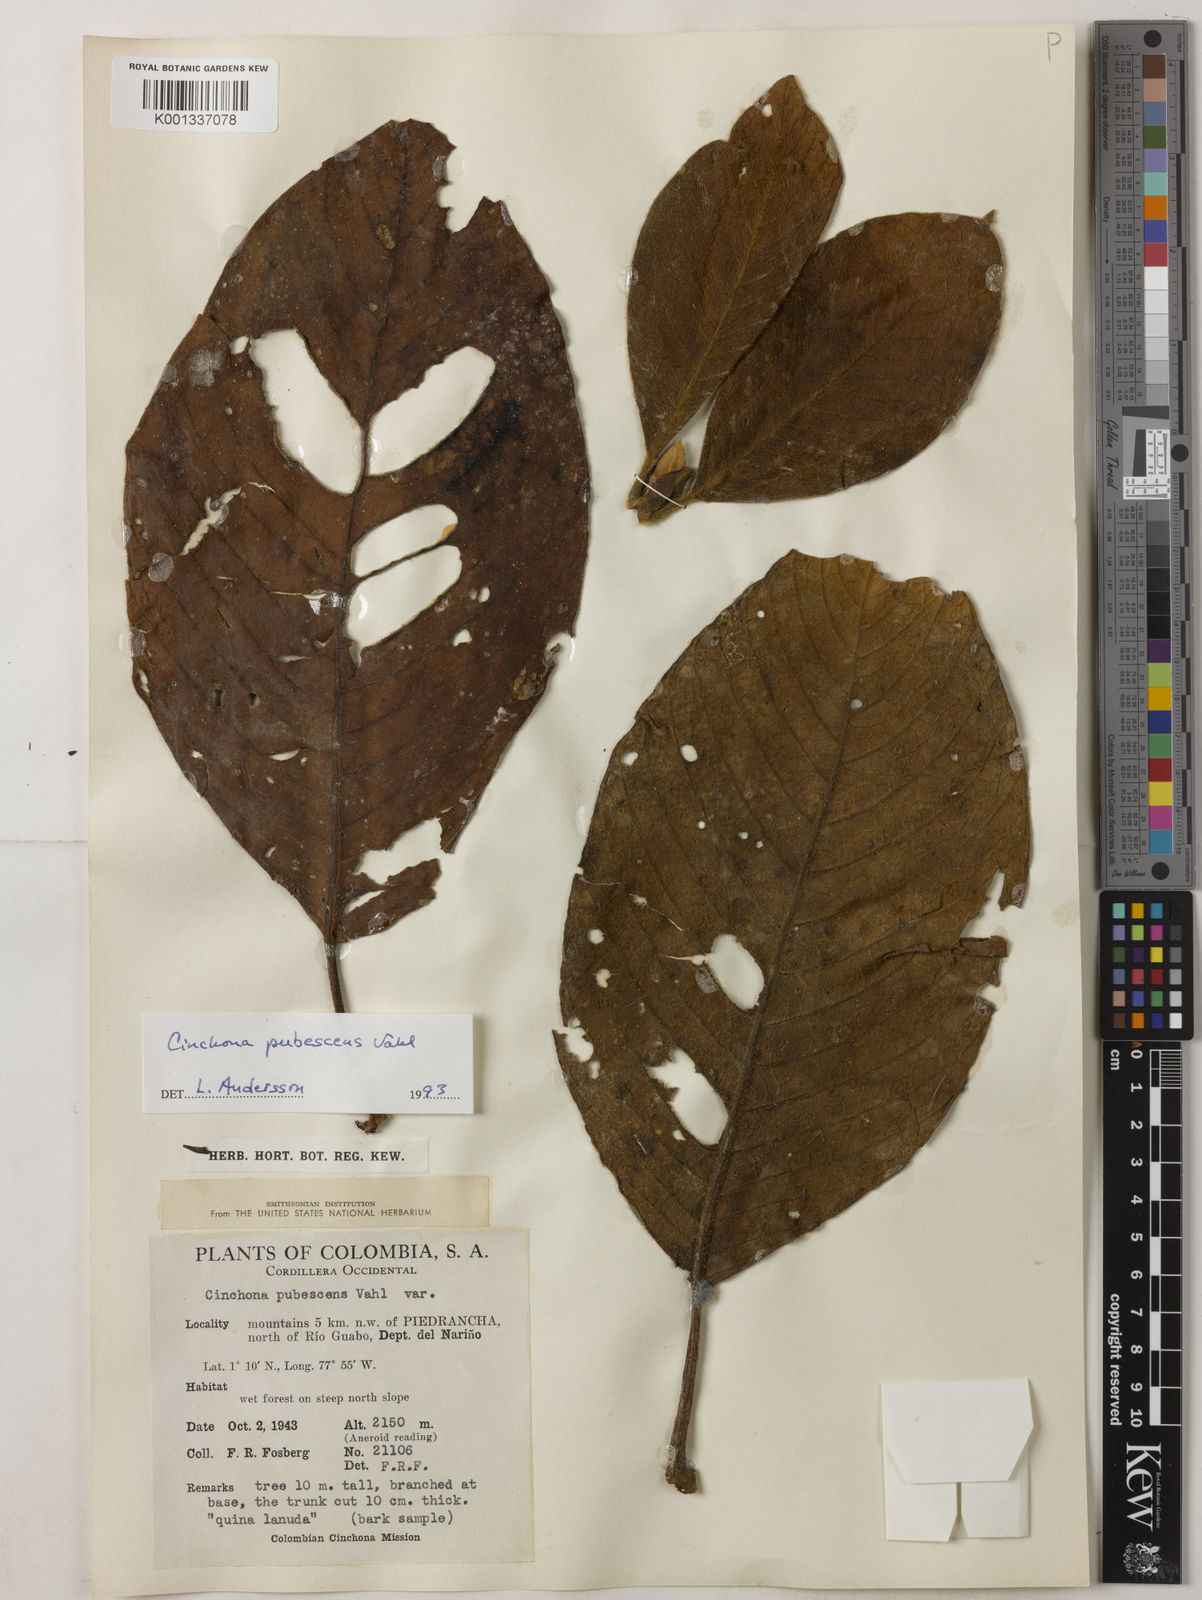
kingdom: Plantae
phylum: Tracheophyta
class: Magnoliopsida
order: Gentianales
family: Rubiaceae
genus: Cinchona
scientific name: Cinchona pubescens
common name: Quinine
